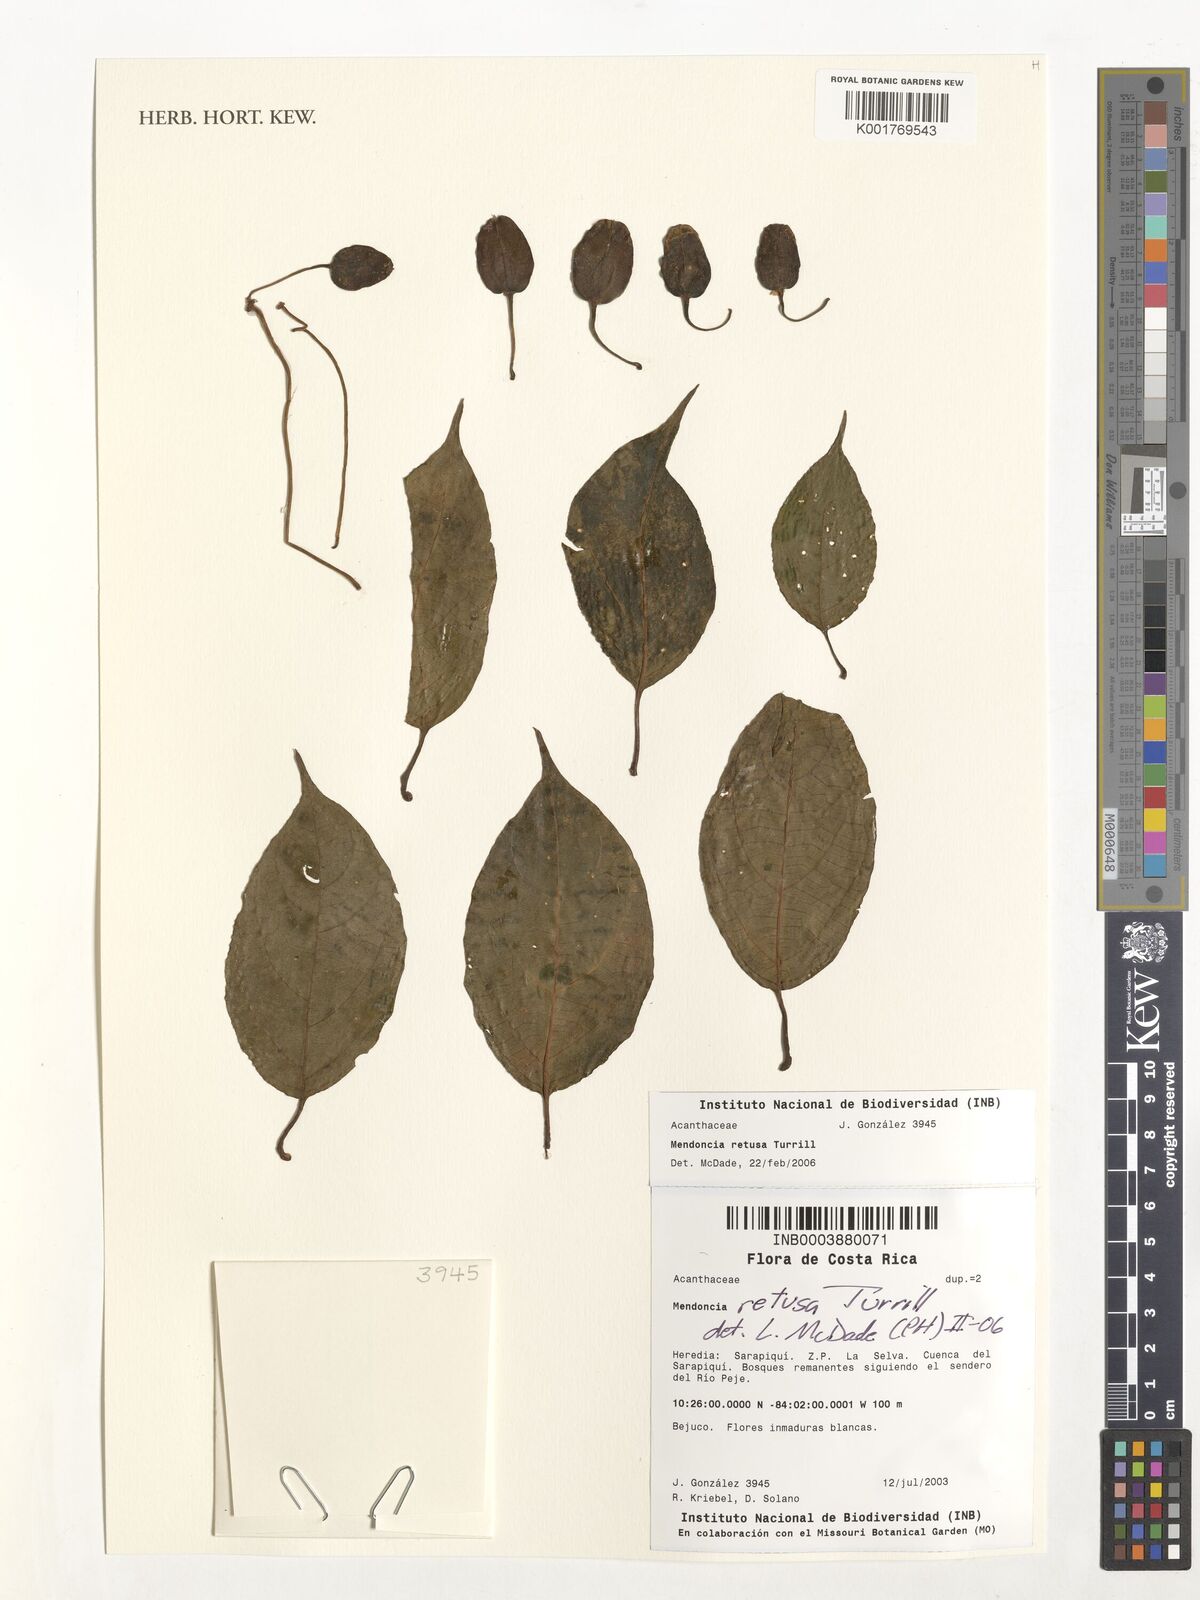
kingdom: Plantae
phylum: Tracheophyta
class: Magnoliopsida
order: Lamiales
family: Acanthaceae
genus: Mendoncia
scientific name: Mendoncia retusa
